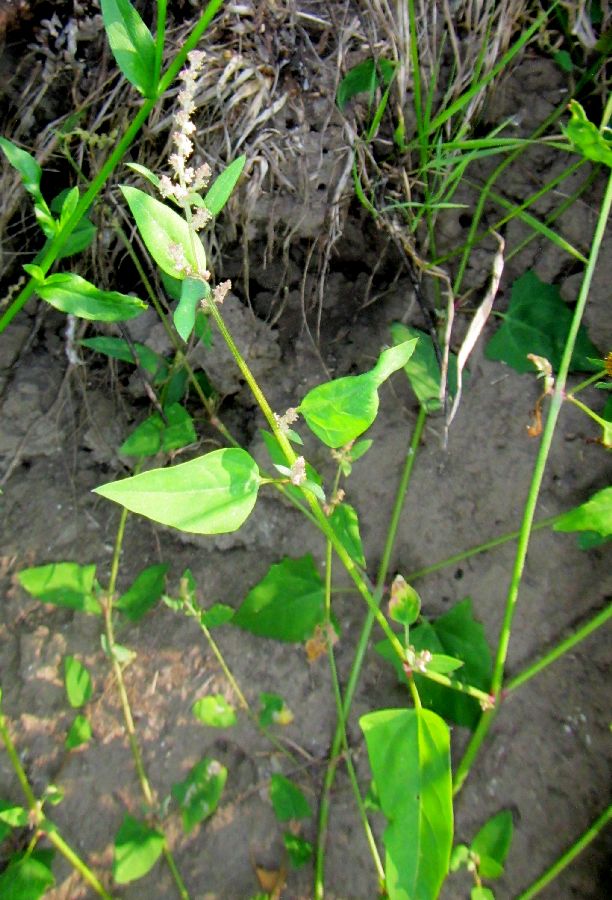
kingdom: Plantae
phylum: Tracheophyta
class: Magnoliopsida
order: Caryophyllales
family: Amaranthaceae
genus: Atriplex
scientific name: Atriplex prostrata
